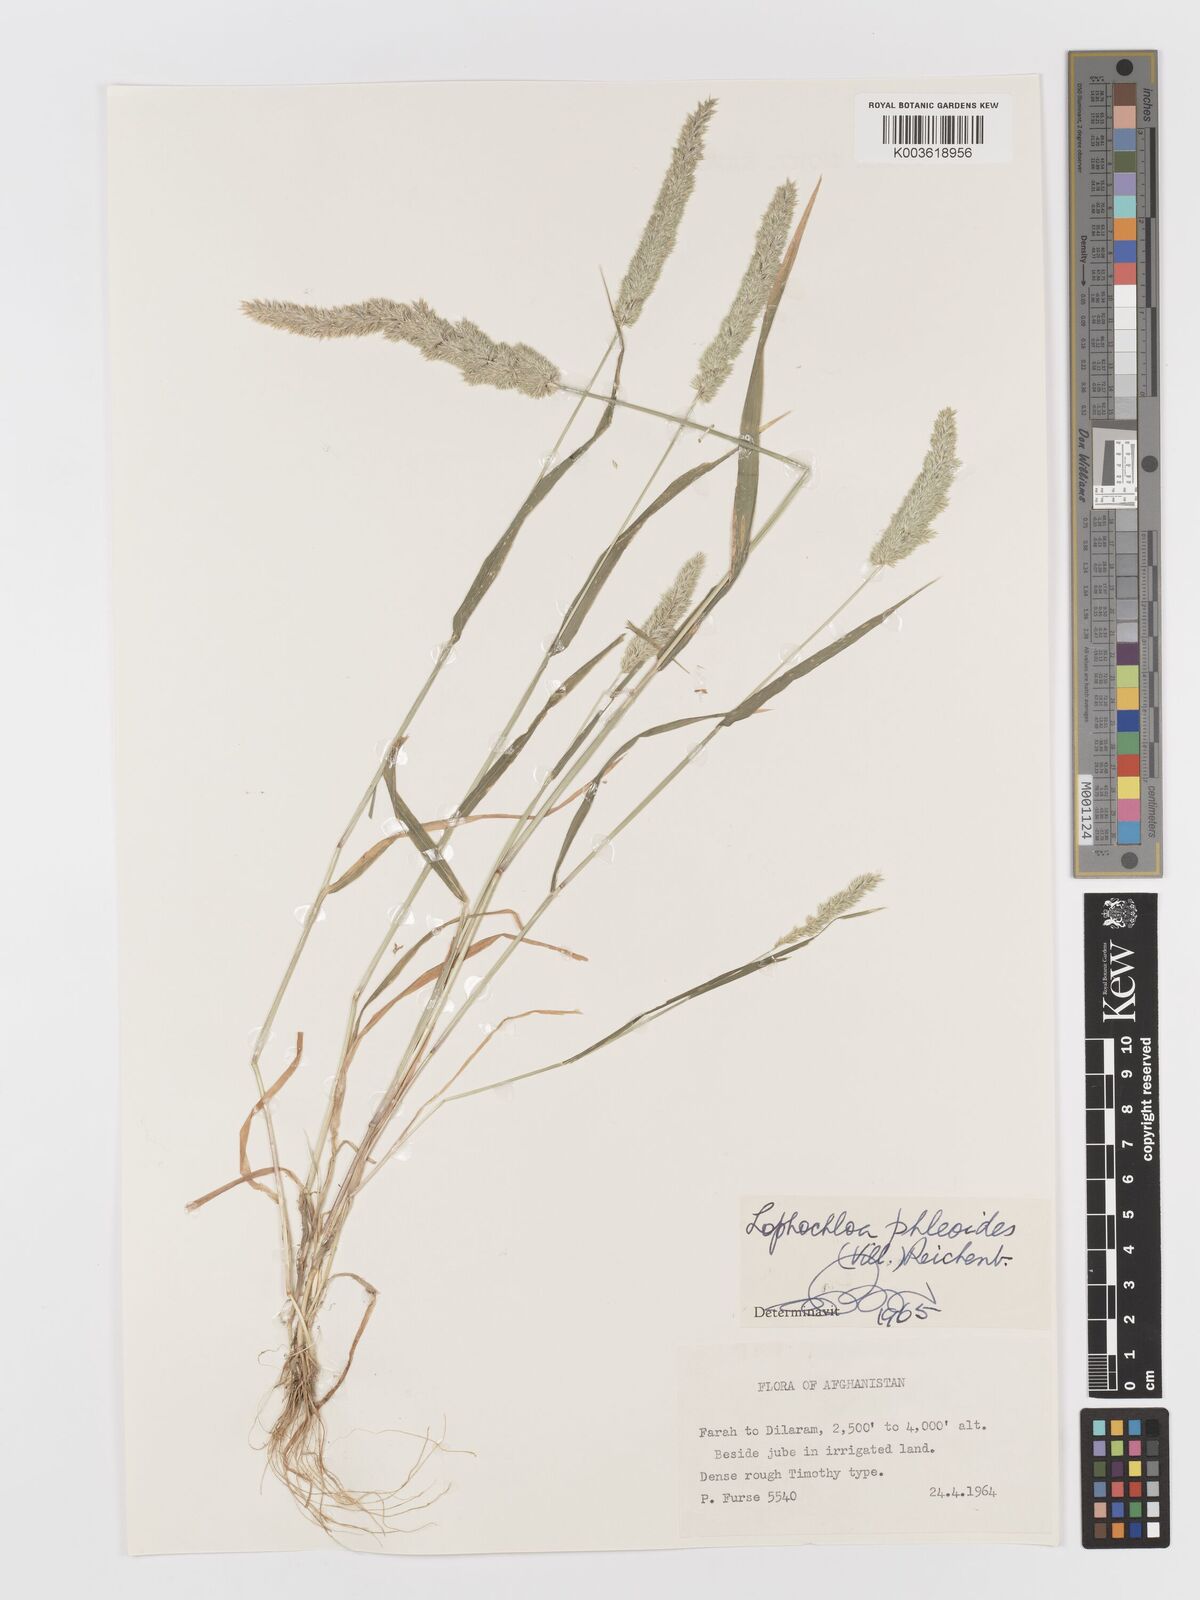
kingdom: Plantae
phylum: Tracheophyta
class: Liliopsida
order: Poales
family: Poaceae
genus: Rostraria
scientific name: Rostraria cristata
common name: Mediterranean hair-grass
